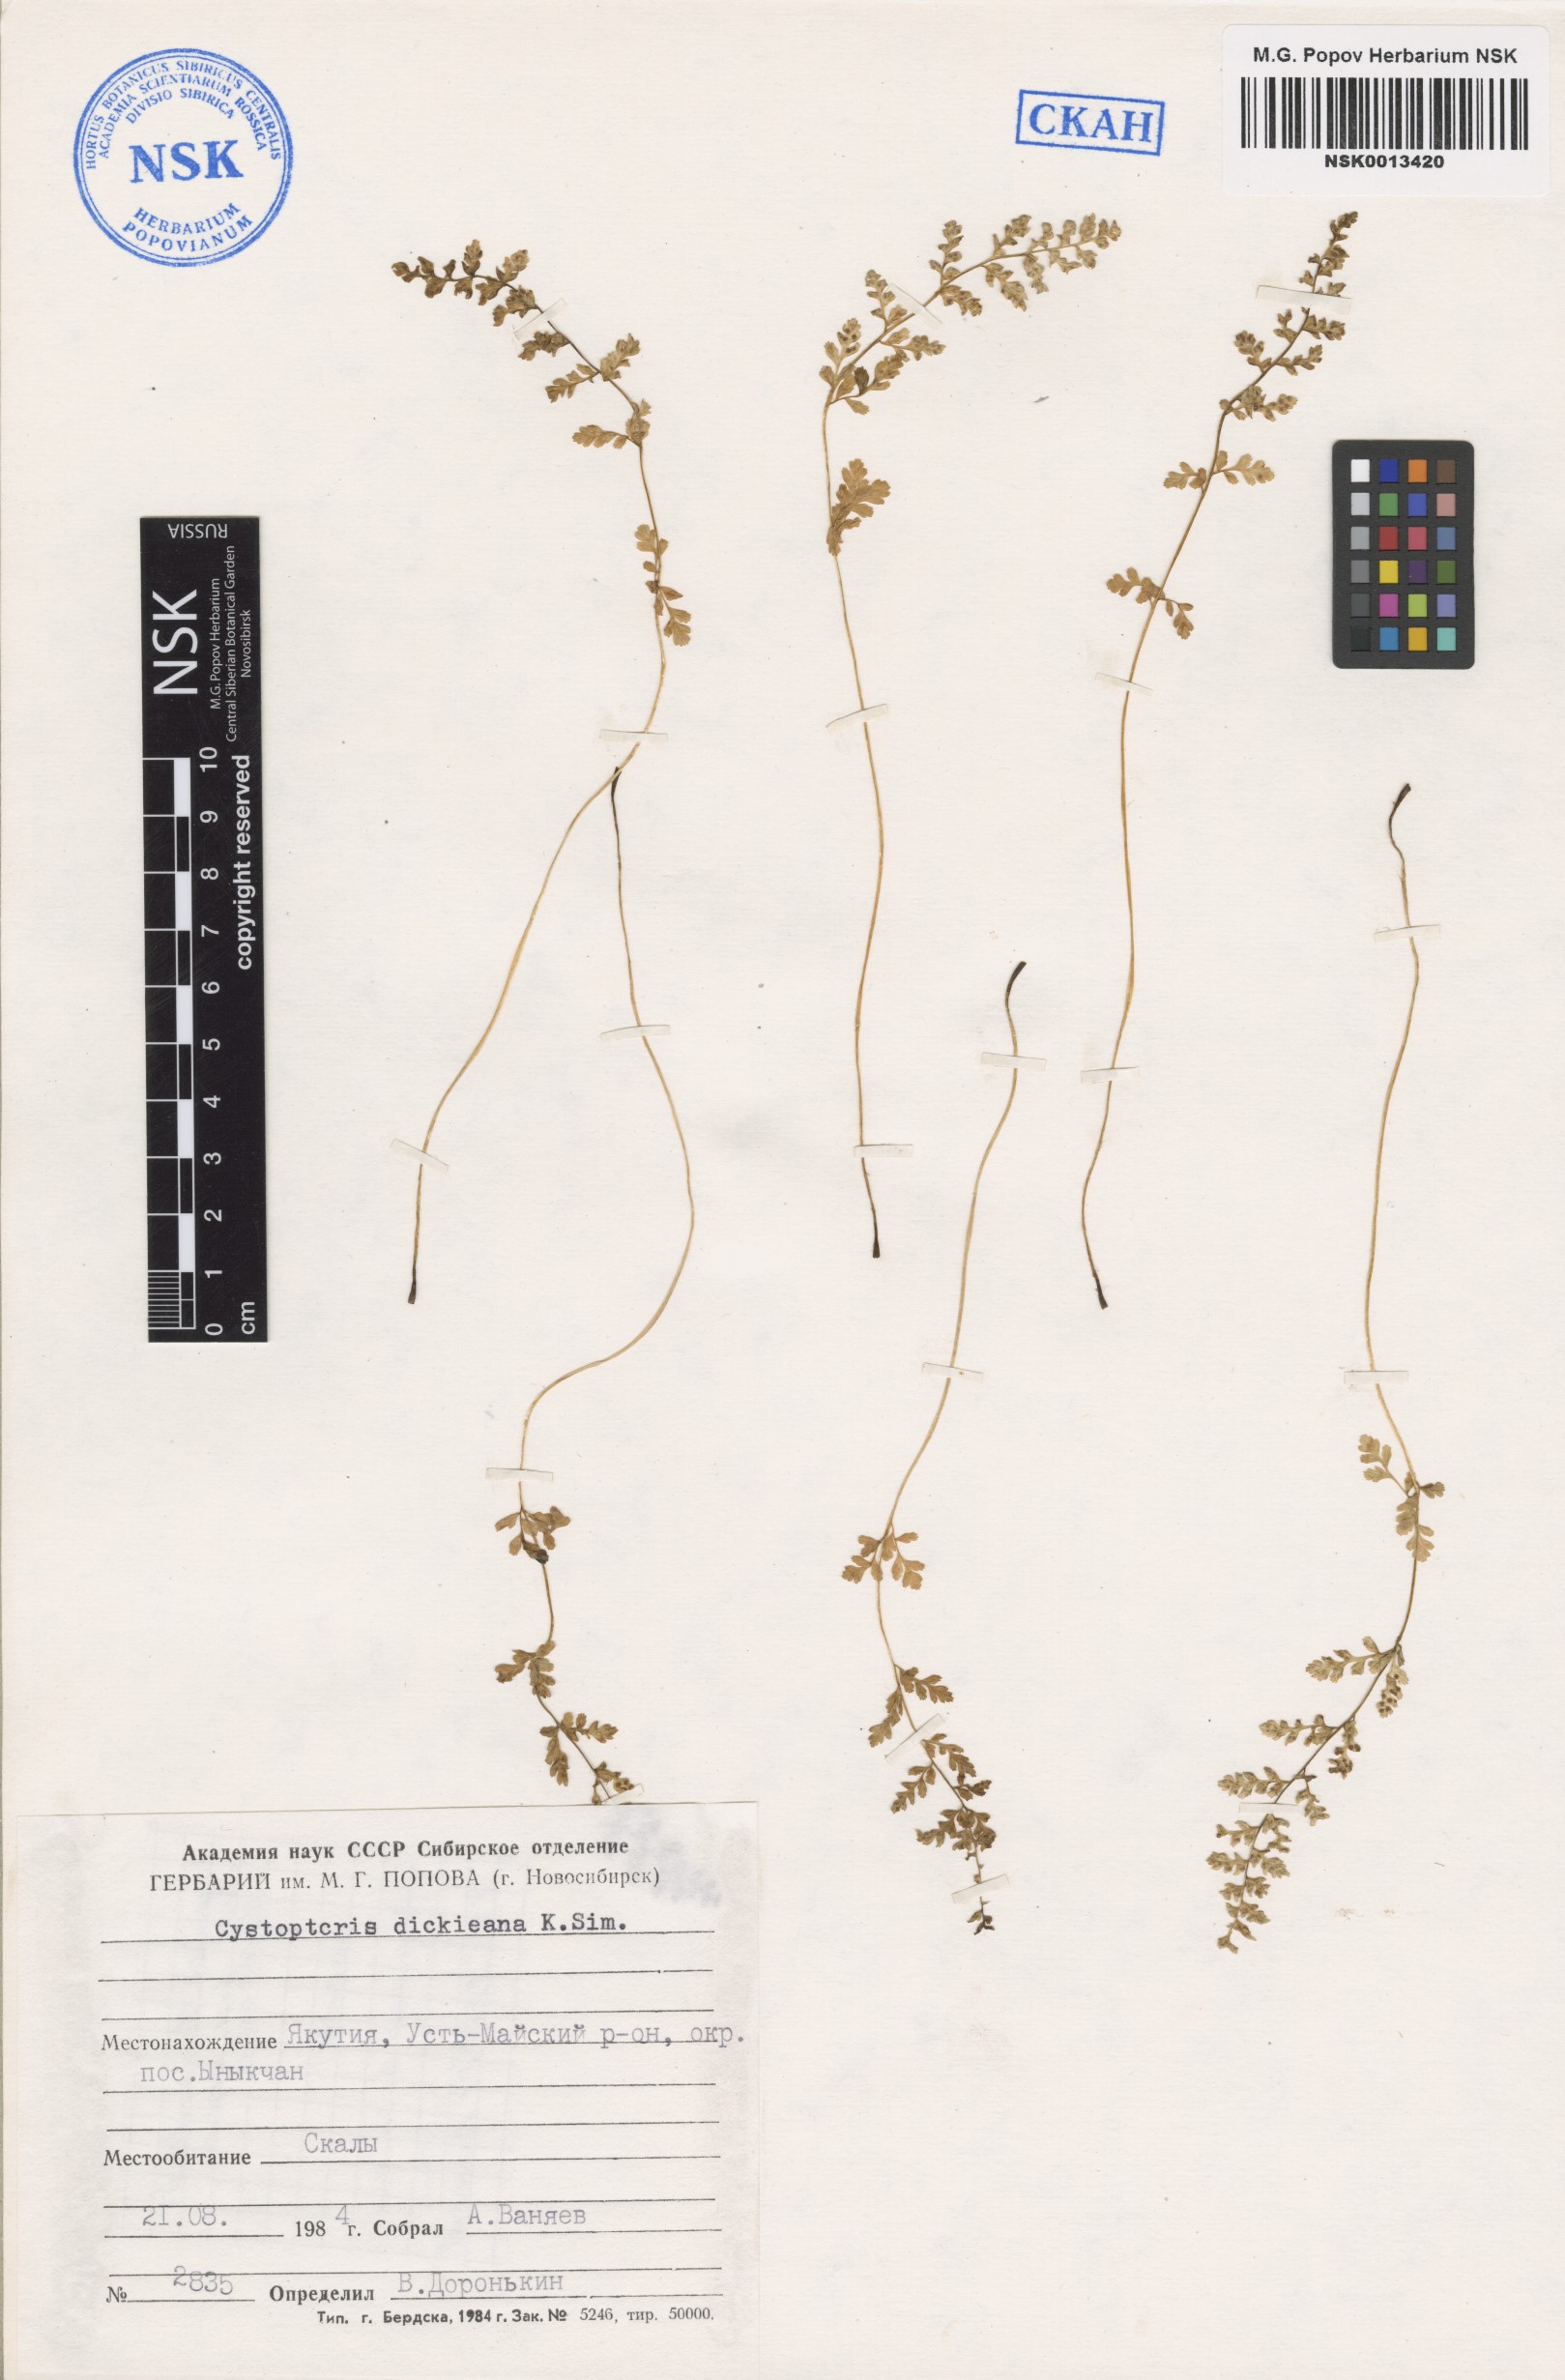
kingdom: Plantae
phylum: Tracheophyta
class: Polypodiopsida
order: Polypodiales
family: Cystopteridaceae
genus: Cystopteris
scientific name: Cystopteris dickieana
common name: Dickie's bladder-fern
